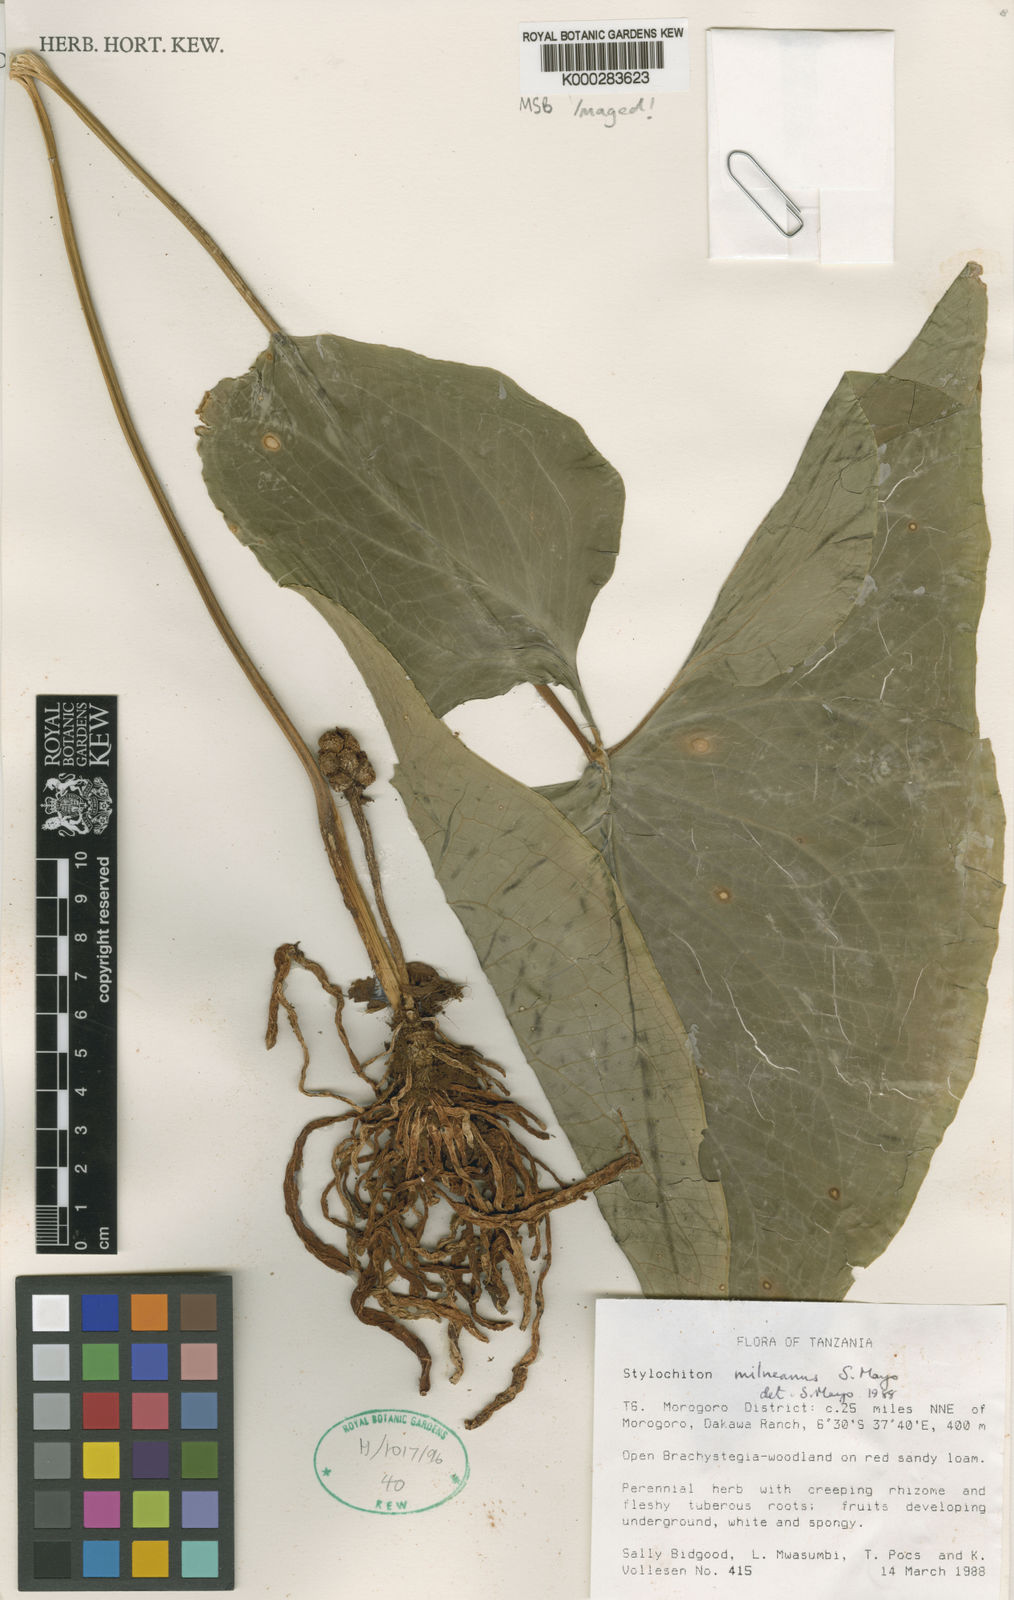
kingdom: Plantae
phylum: Tracheophyta
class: Liliopsida
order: Alismatales
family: Araceae
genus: Stylochaeton
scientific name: Stylochaeton milneanum
